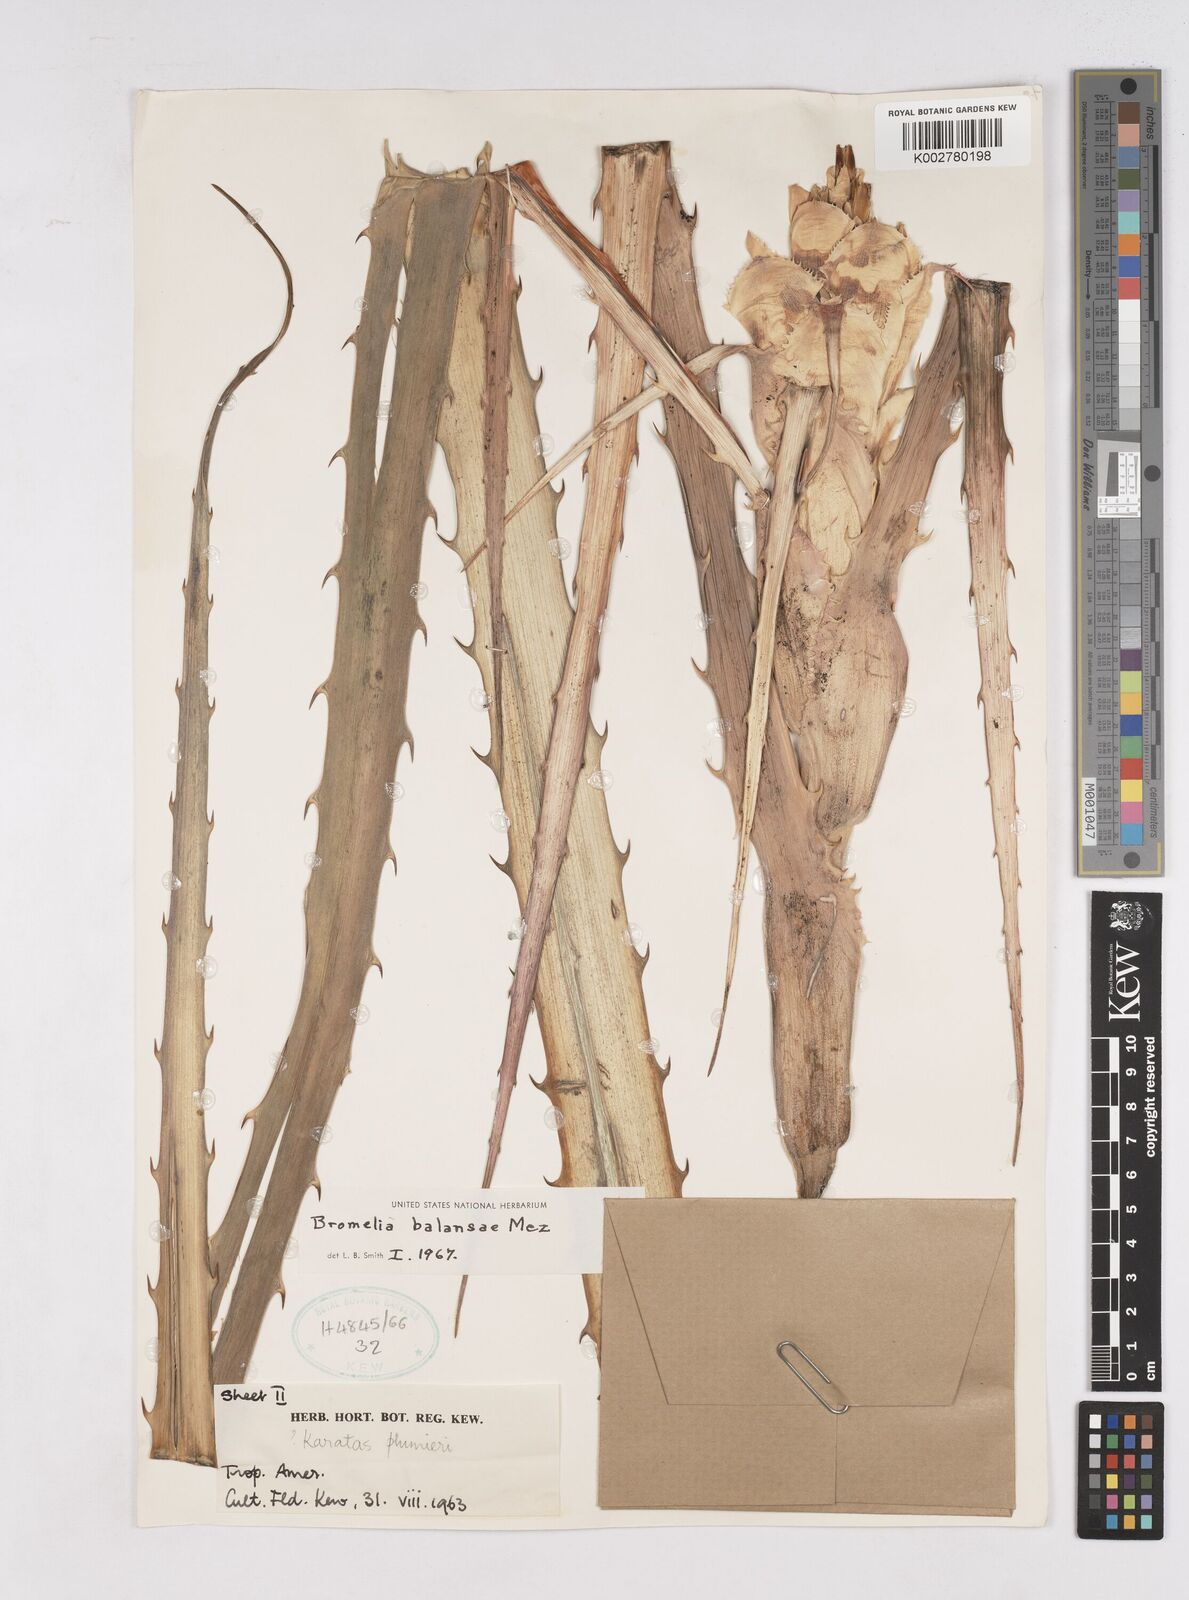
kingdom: Plantae
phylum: Tracheophyta
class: Liliopsida
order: Poales
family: Bromeliaceae
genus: Bromelia
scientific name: Bromelia balansae
